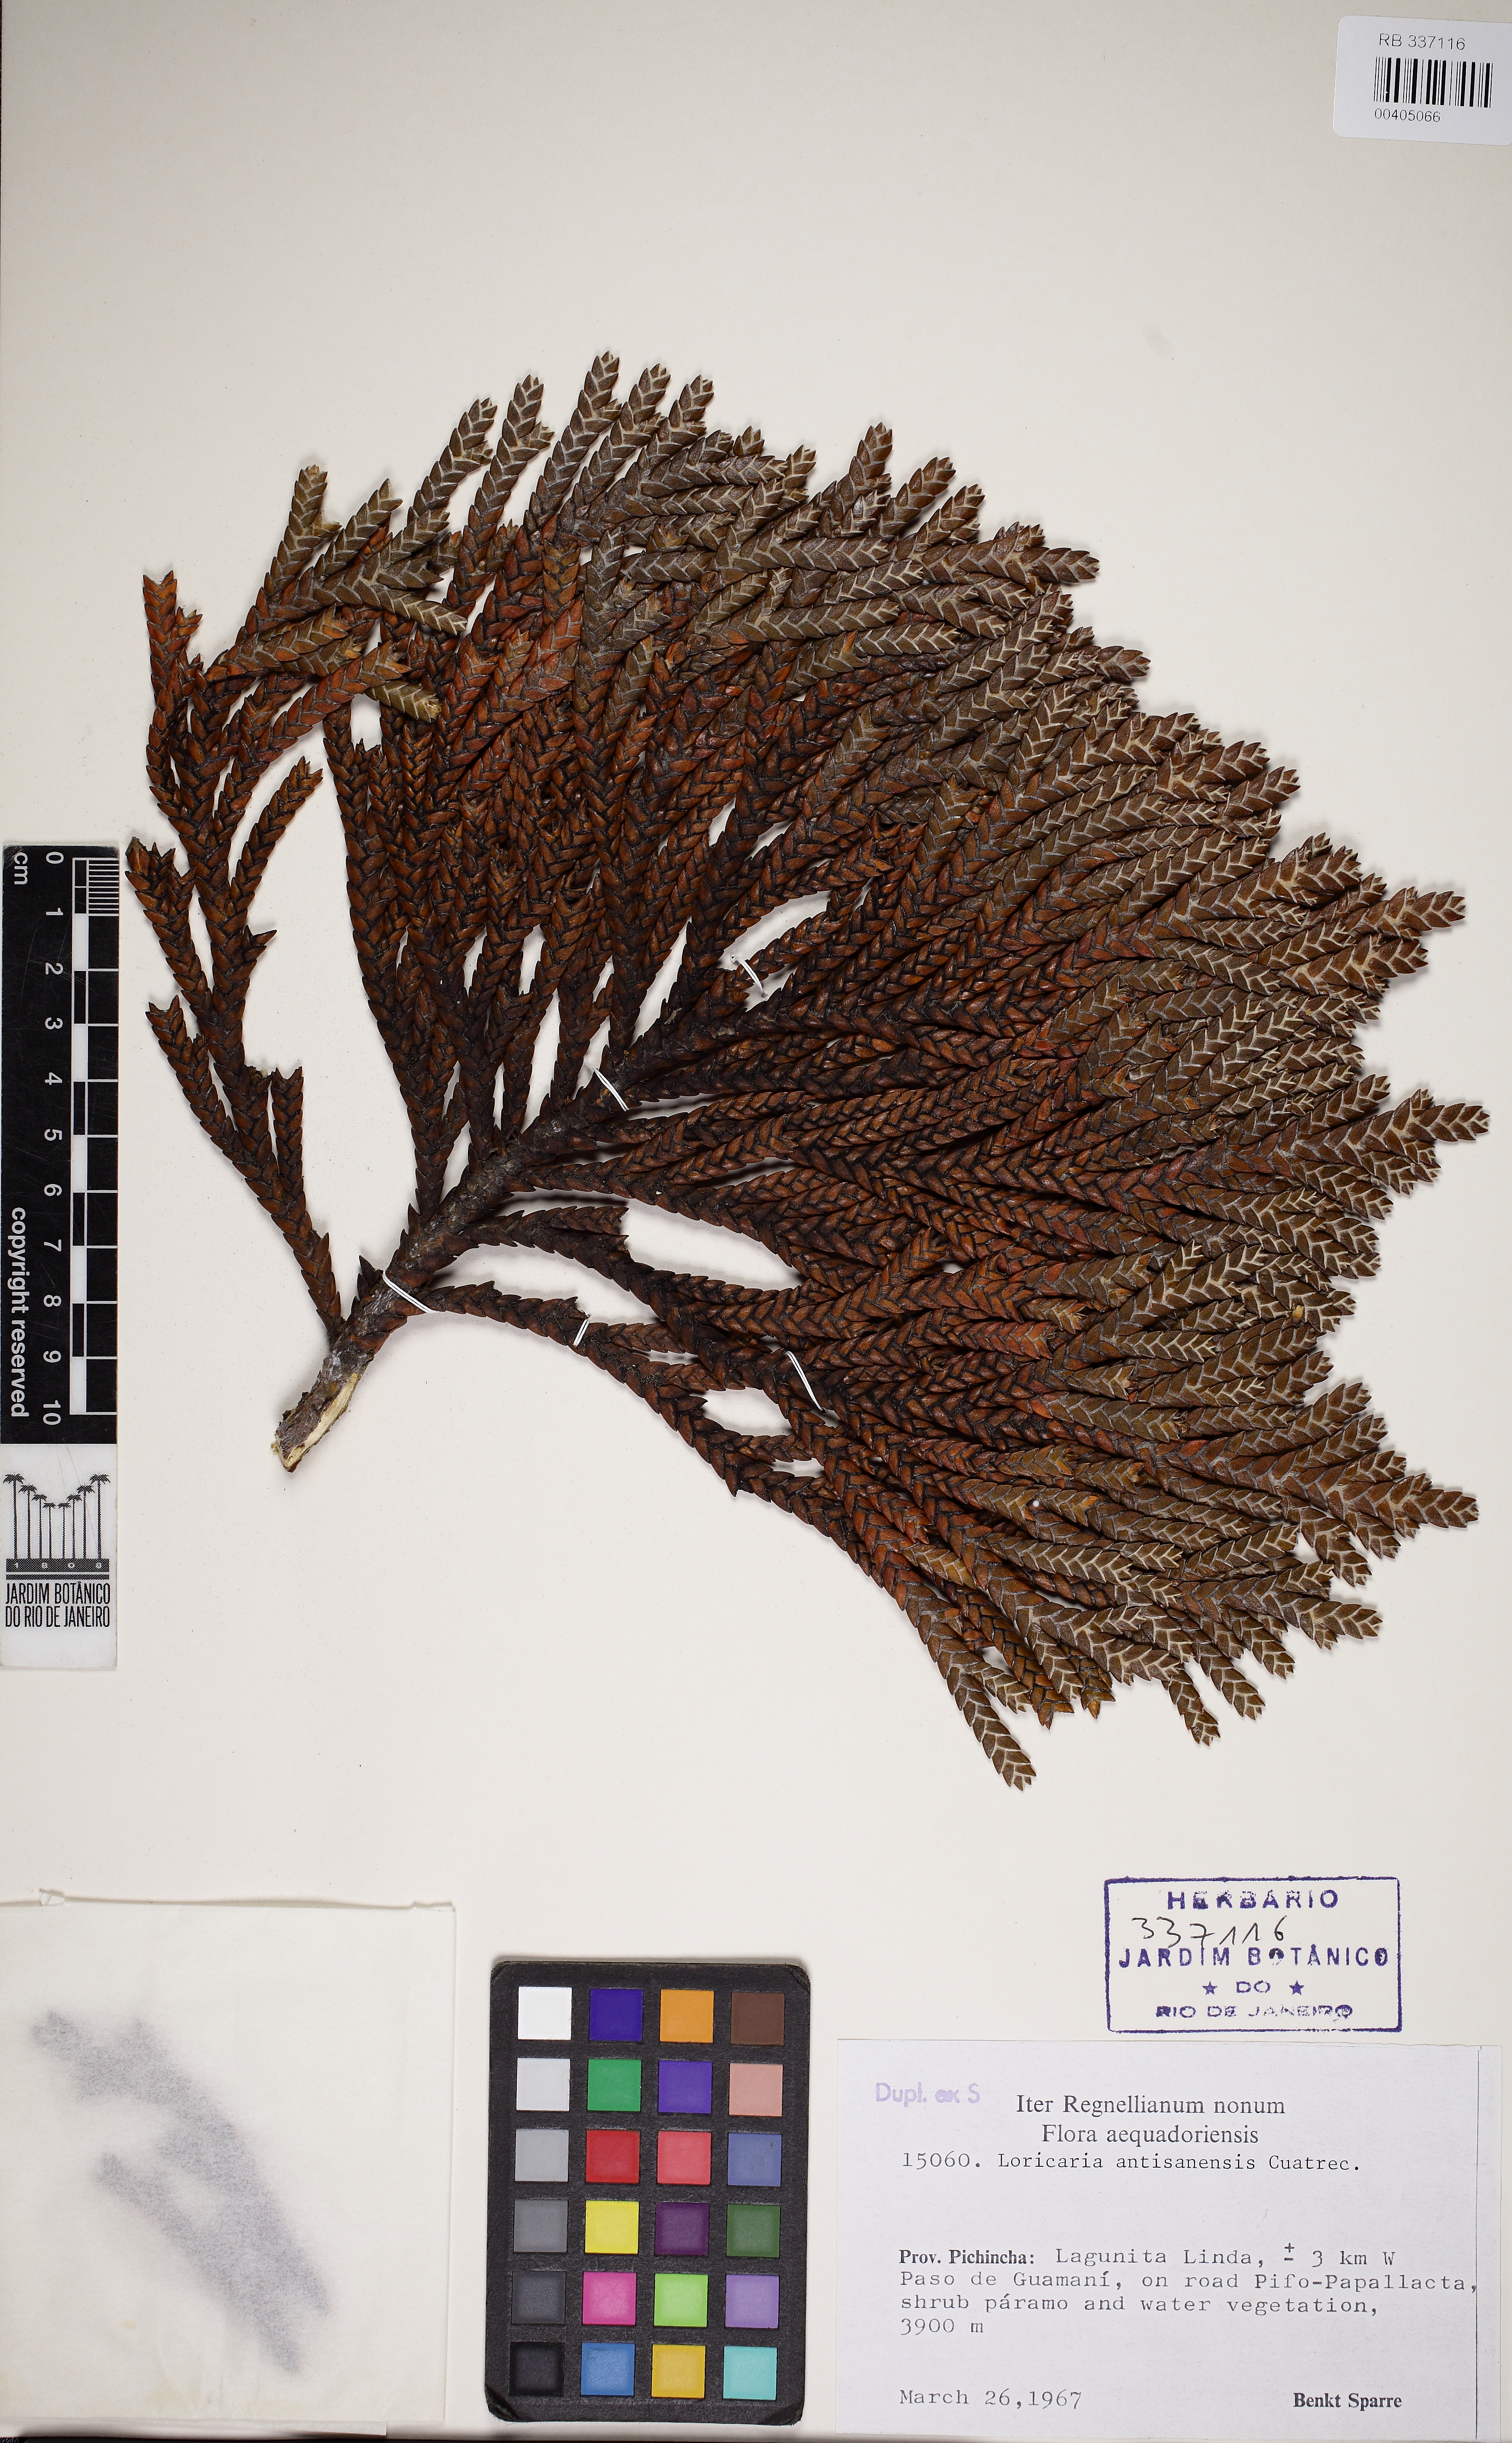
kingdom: Plantae
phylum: Tracheophyta
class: Magnoliopsida
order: Asterales
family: Asteraceae
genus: Andicolea
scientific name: Andicolea antisanensis
